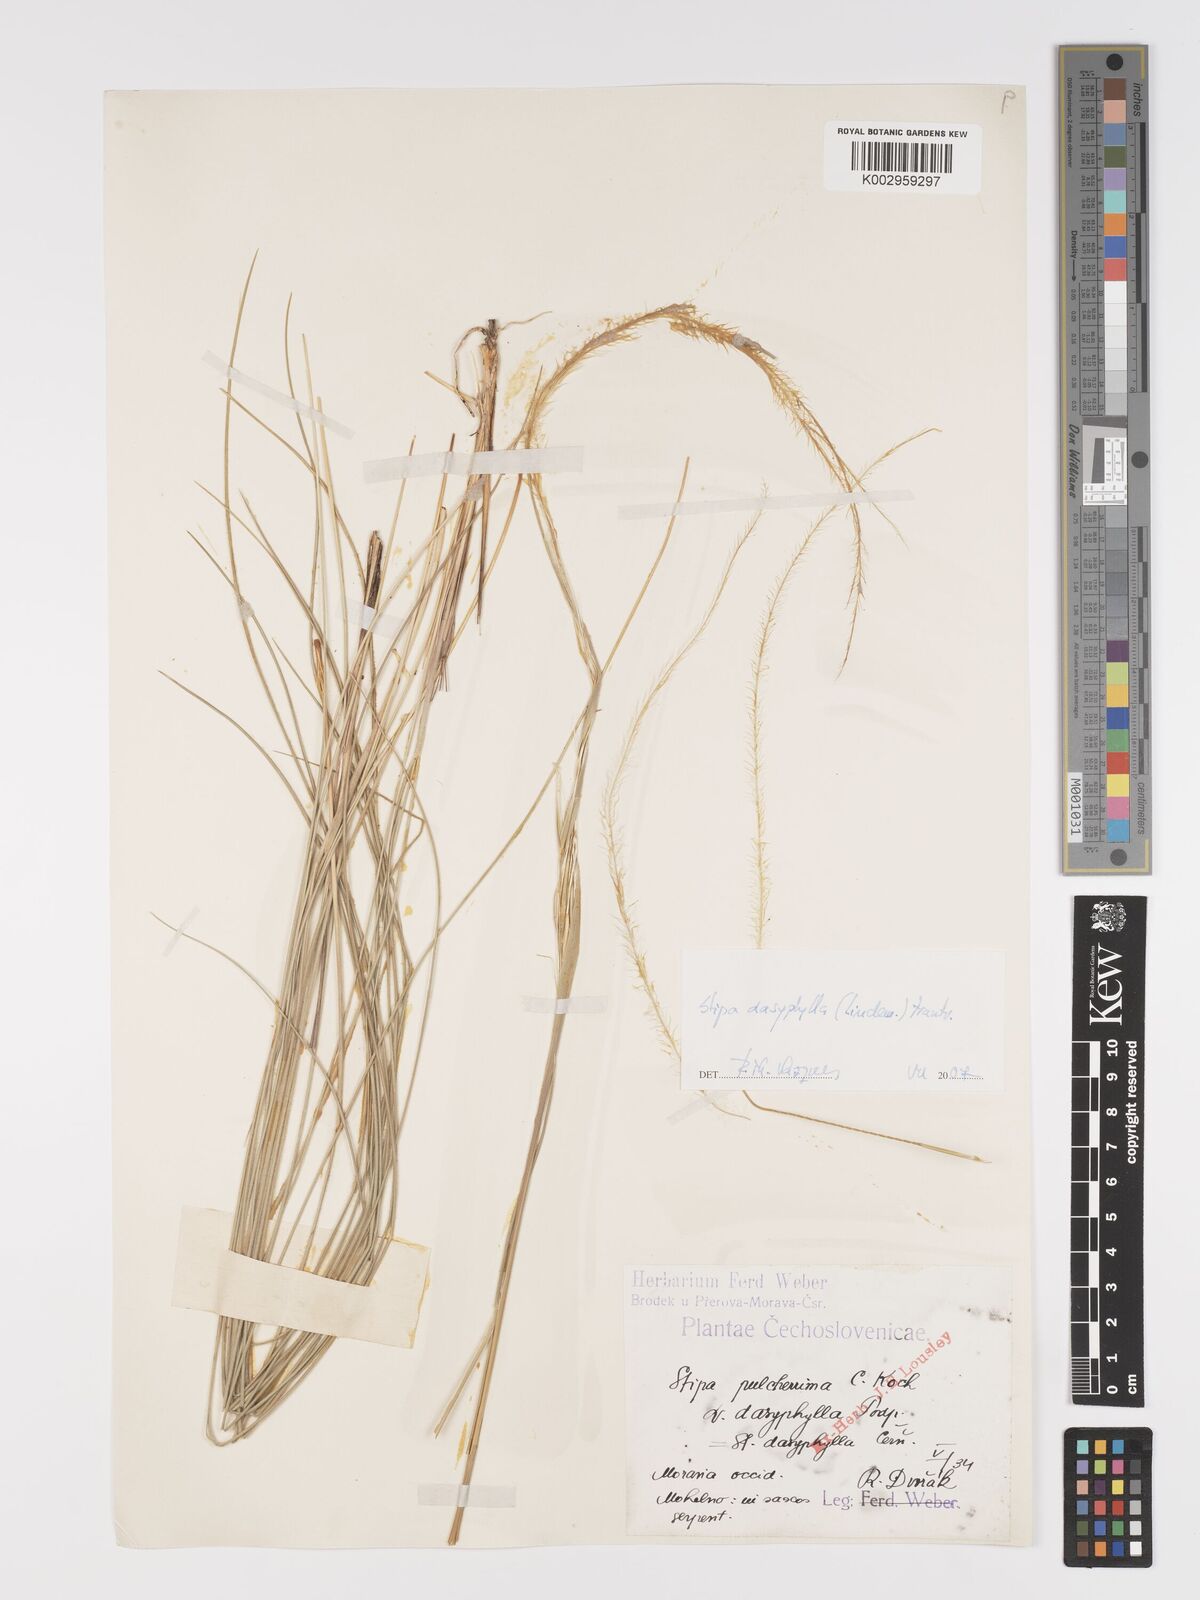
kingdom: Plantae
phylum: Tracheophyta
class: Liliopsida
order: Poales
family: Poaceae
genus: Stipa
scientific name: Stipa dasyphylla
